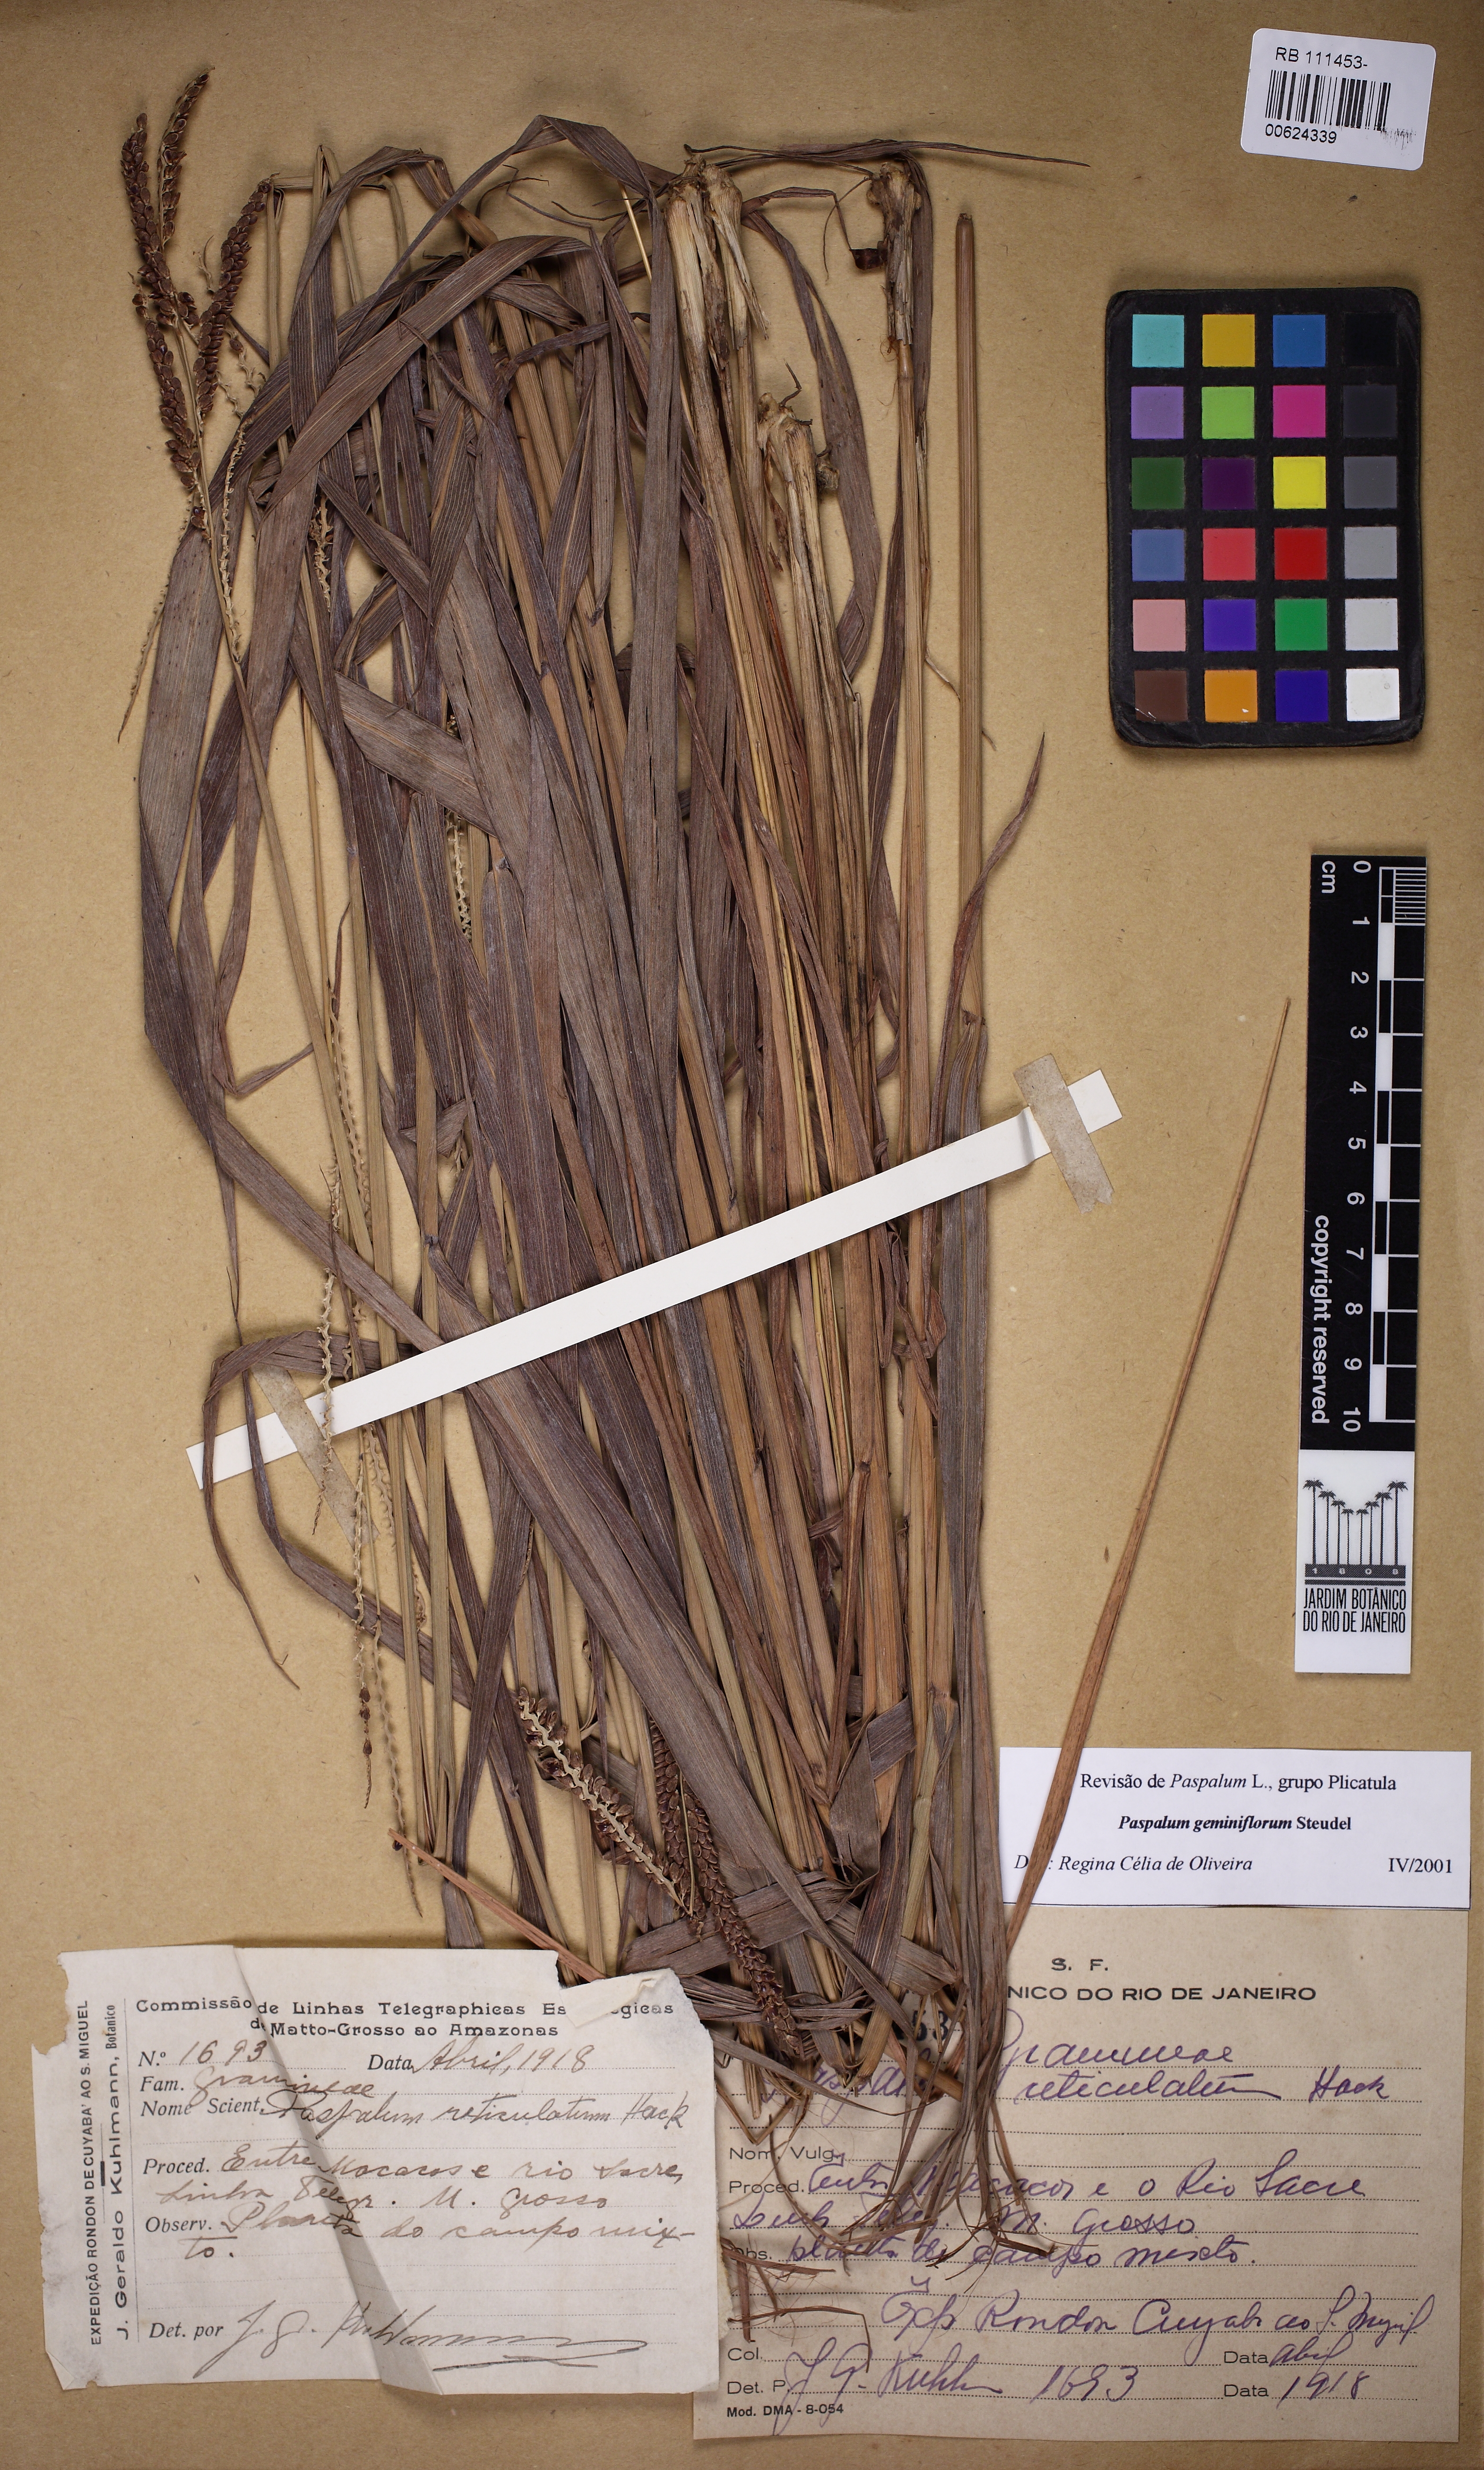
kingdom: Plantae
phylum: Tracheophyta
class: Liliopsida
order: Poales
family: Poaceae
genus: Paspalum
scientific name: Paspalum geminiflorum
